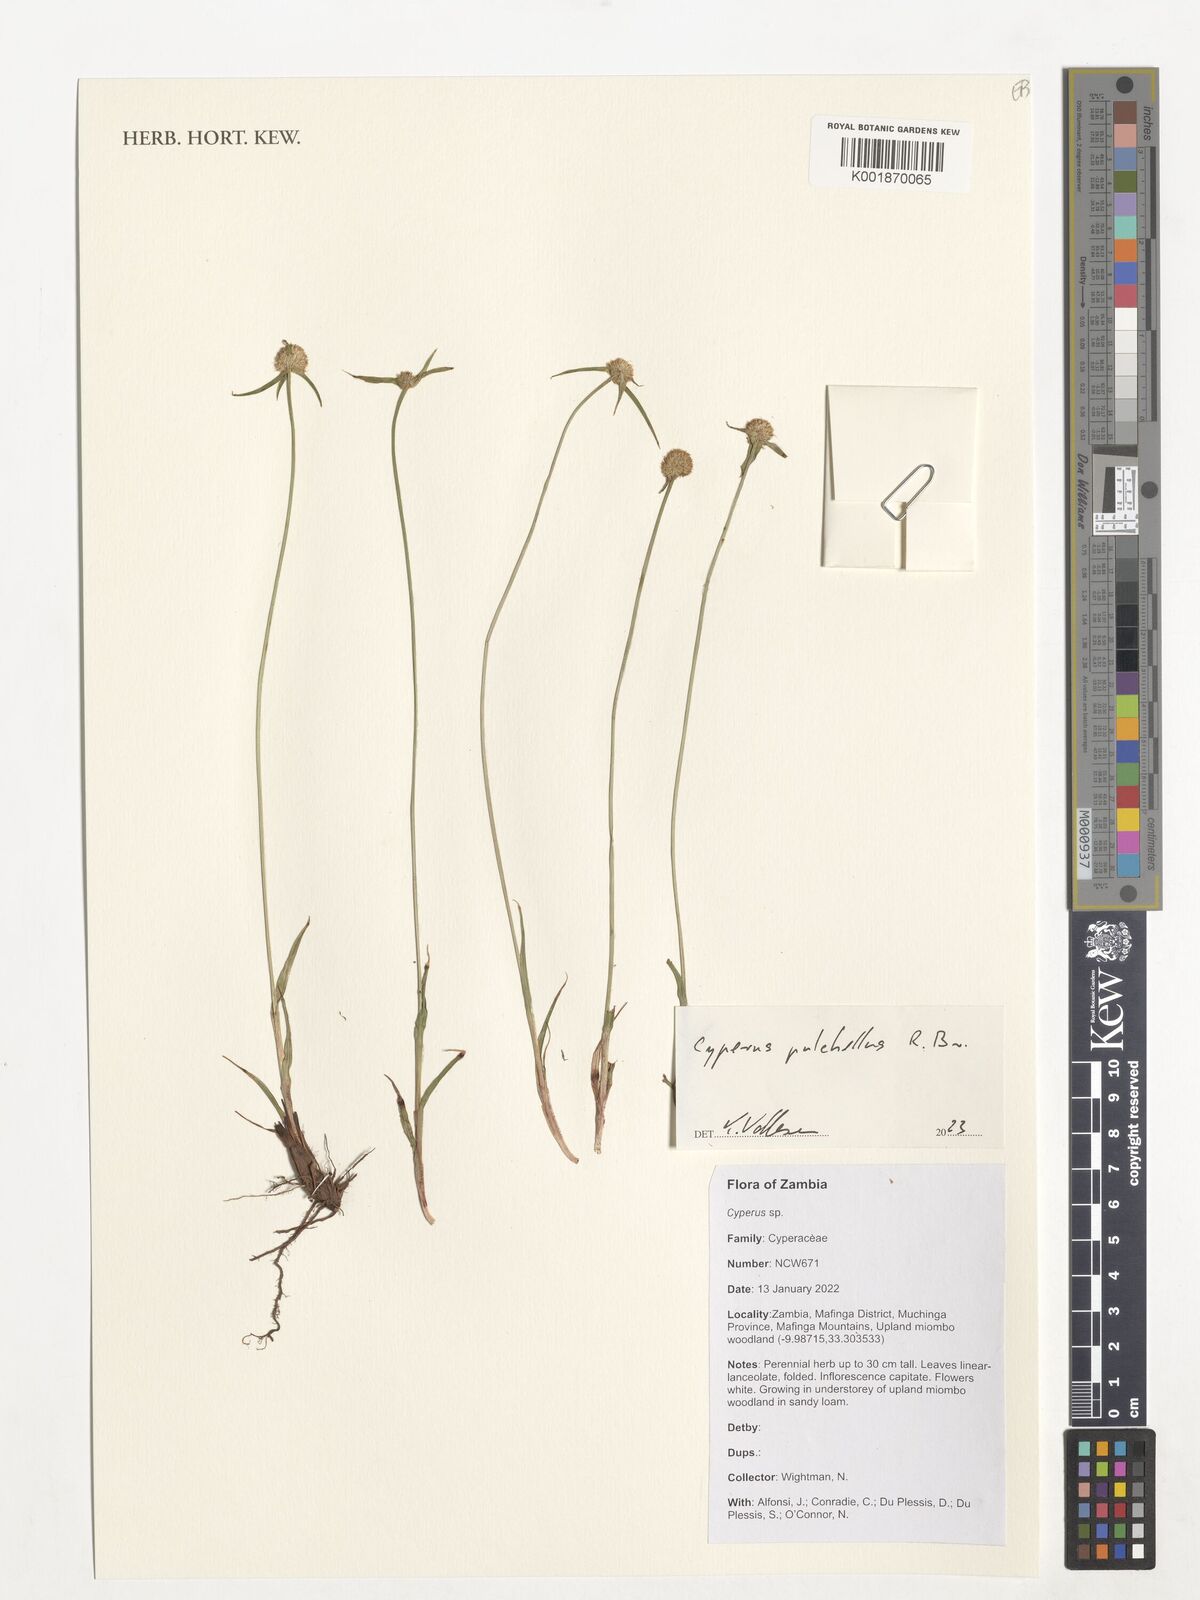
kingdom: Plantae
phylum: Tracheophyta
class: Liliopsida
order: Poales
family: Cyperaceae
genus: Cyperus
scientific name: Cyperus pulchellus
